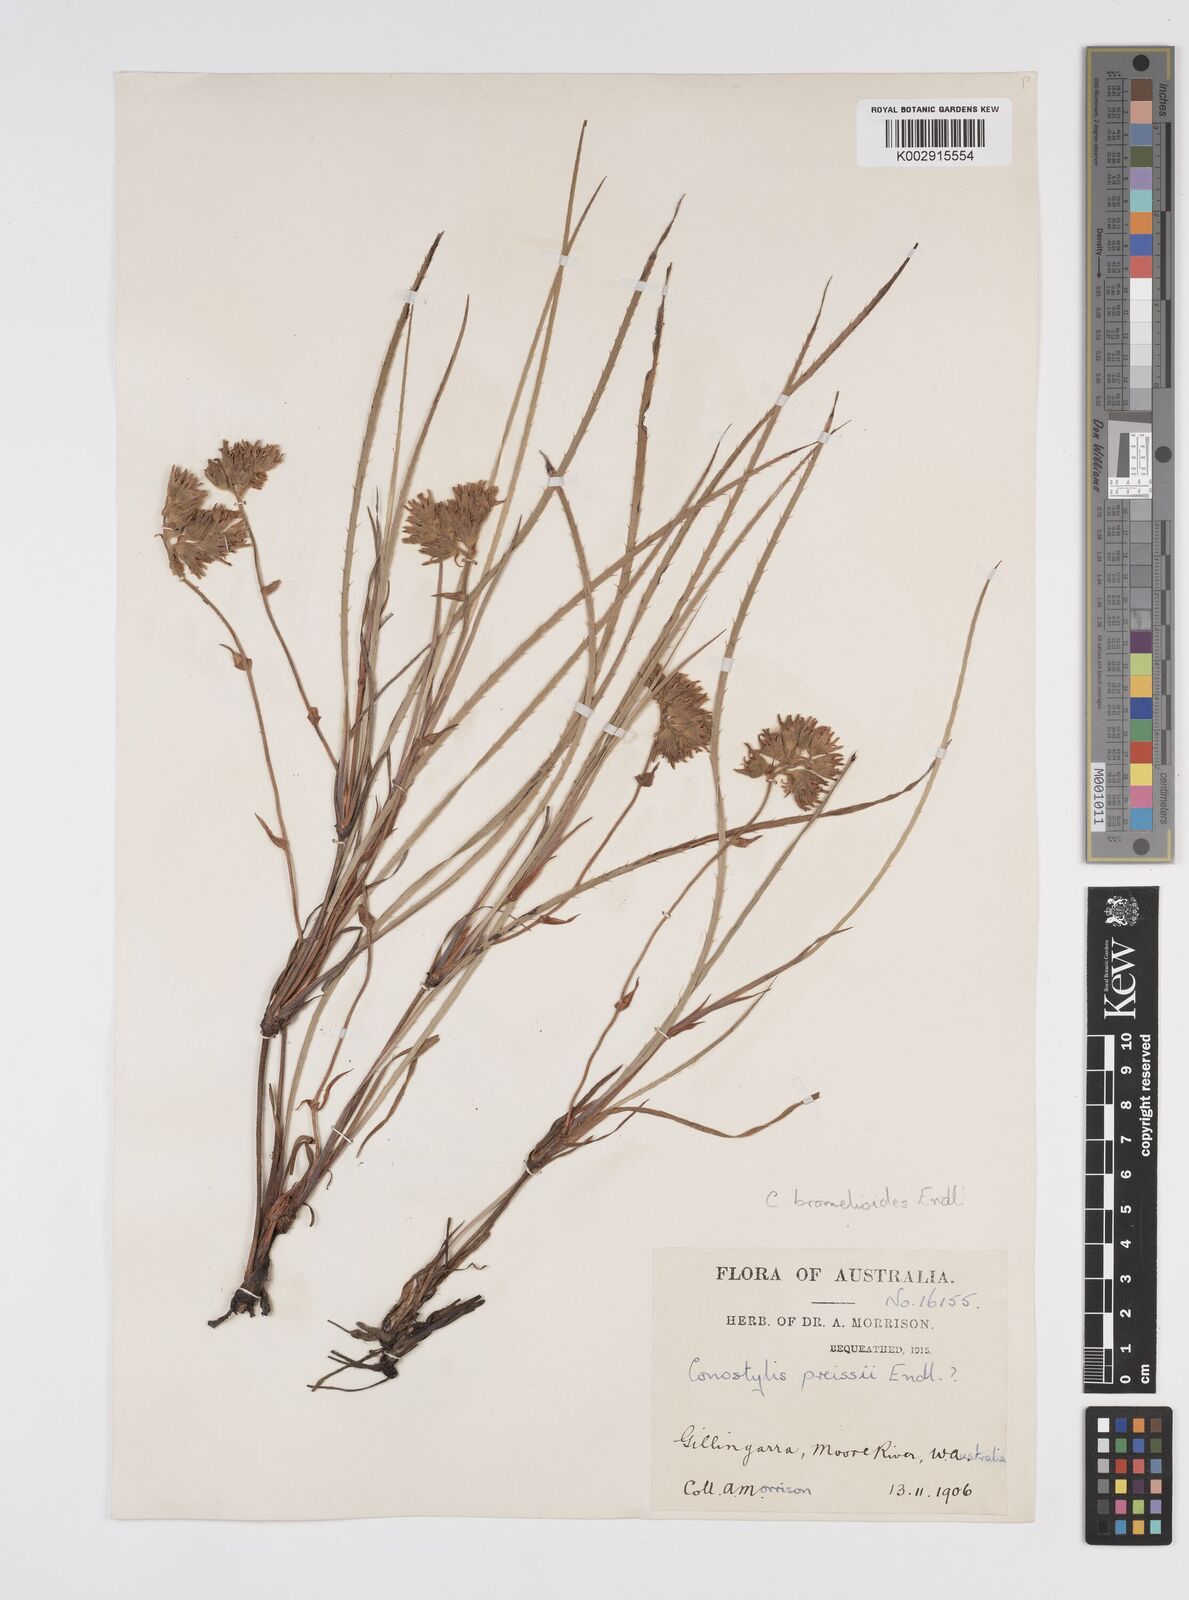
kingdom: Plantae
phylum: Tracheophyta
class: Liliopsida
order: Commelinales
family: Haemodoraceae
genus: Conostylis
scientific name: Conostylis aculeata
